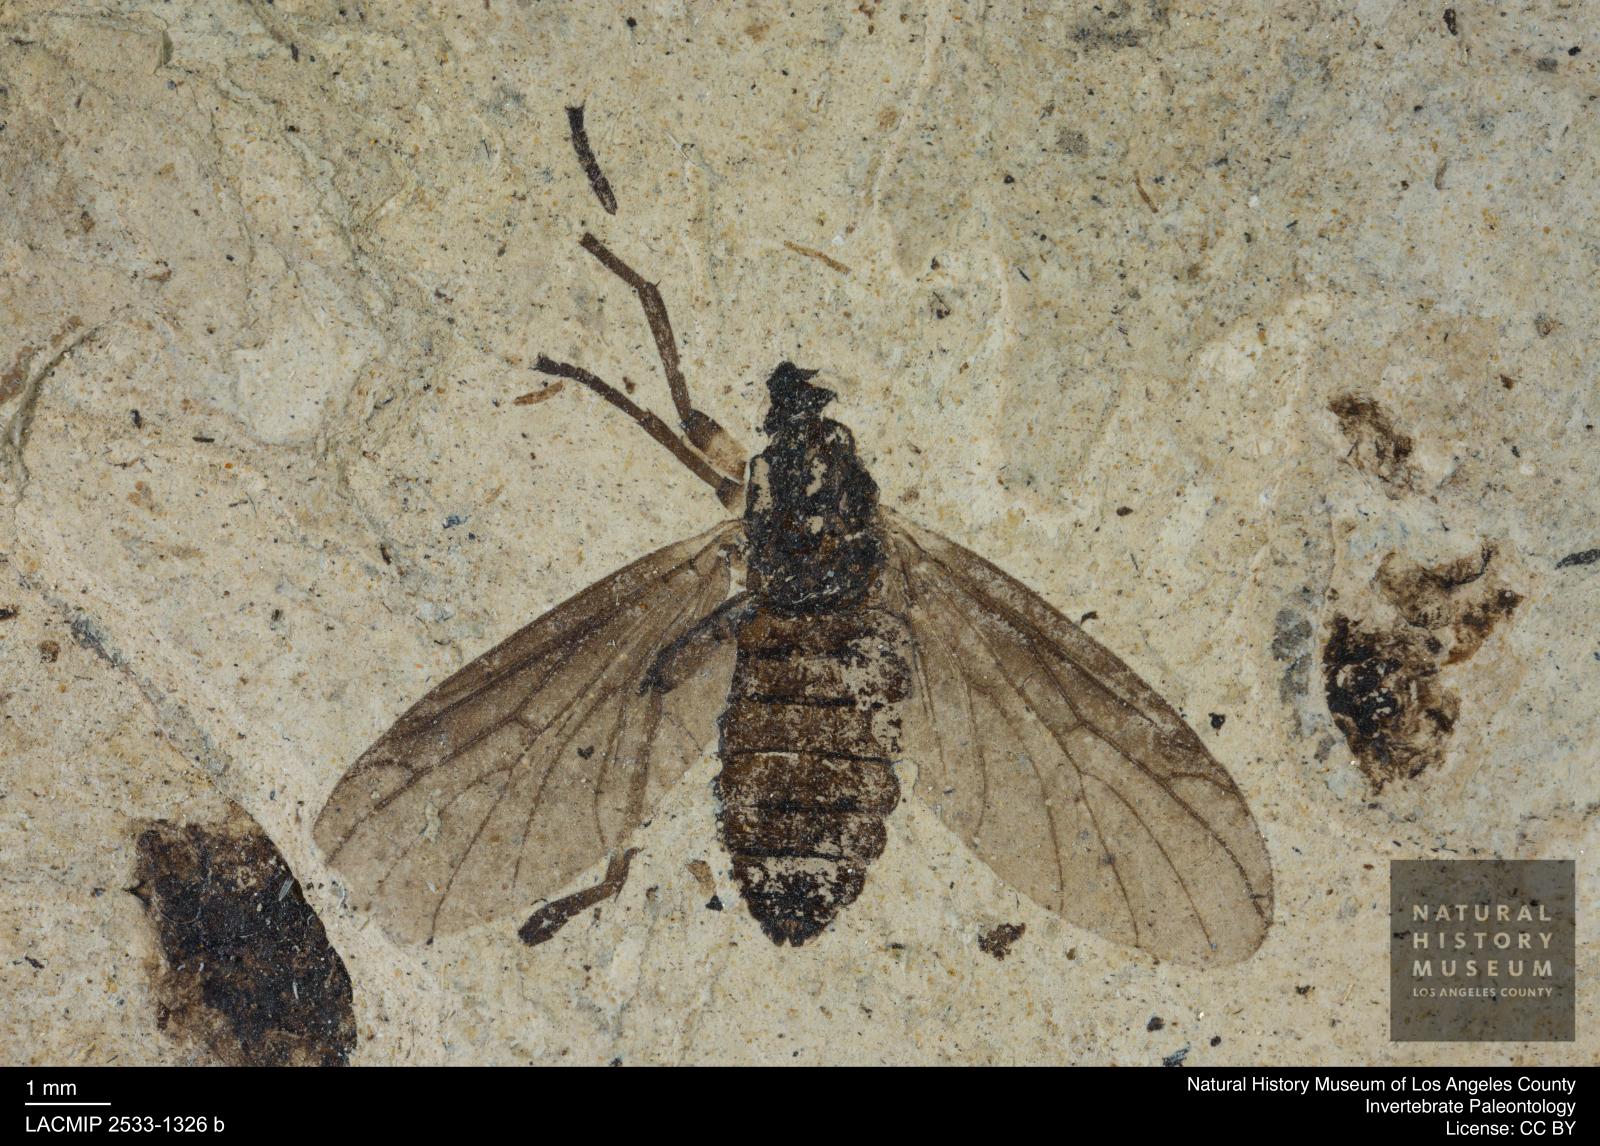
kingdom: Animalia
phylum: Arthropoda
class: Insecta
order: Diptera
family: Bibionidae
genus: Plecia
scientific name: Plecia hypogaea
